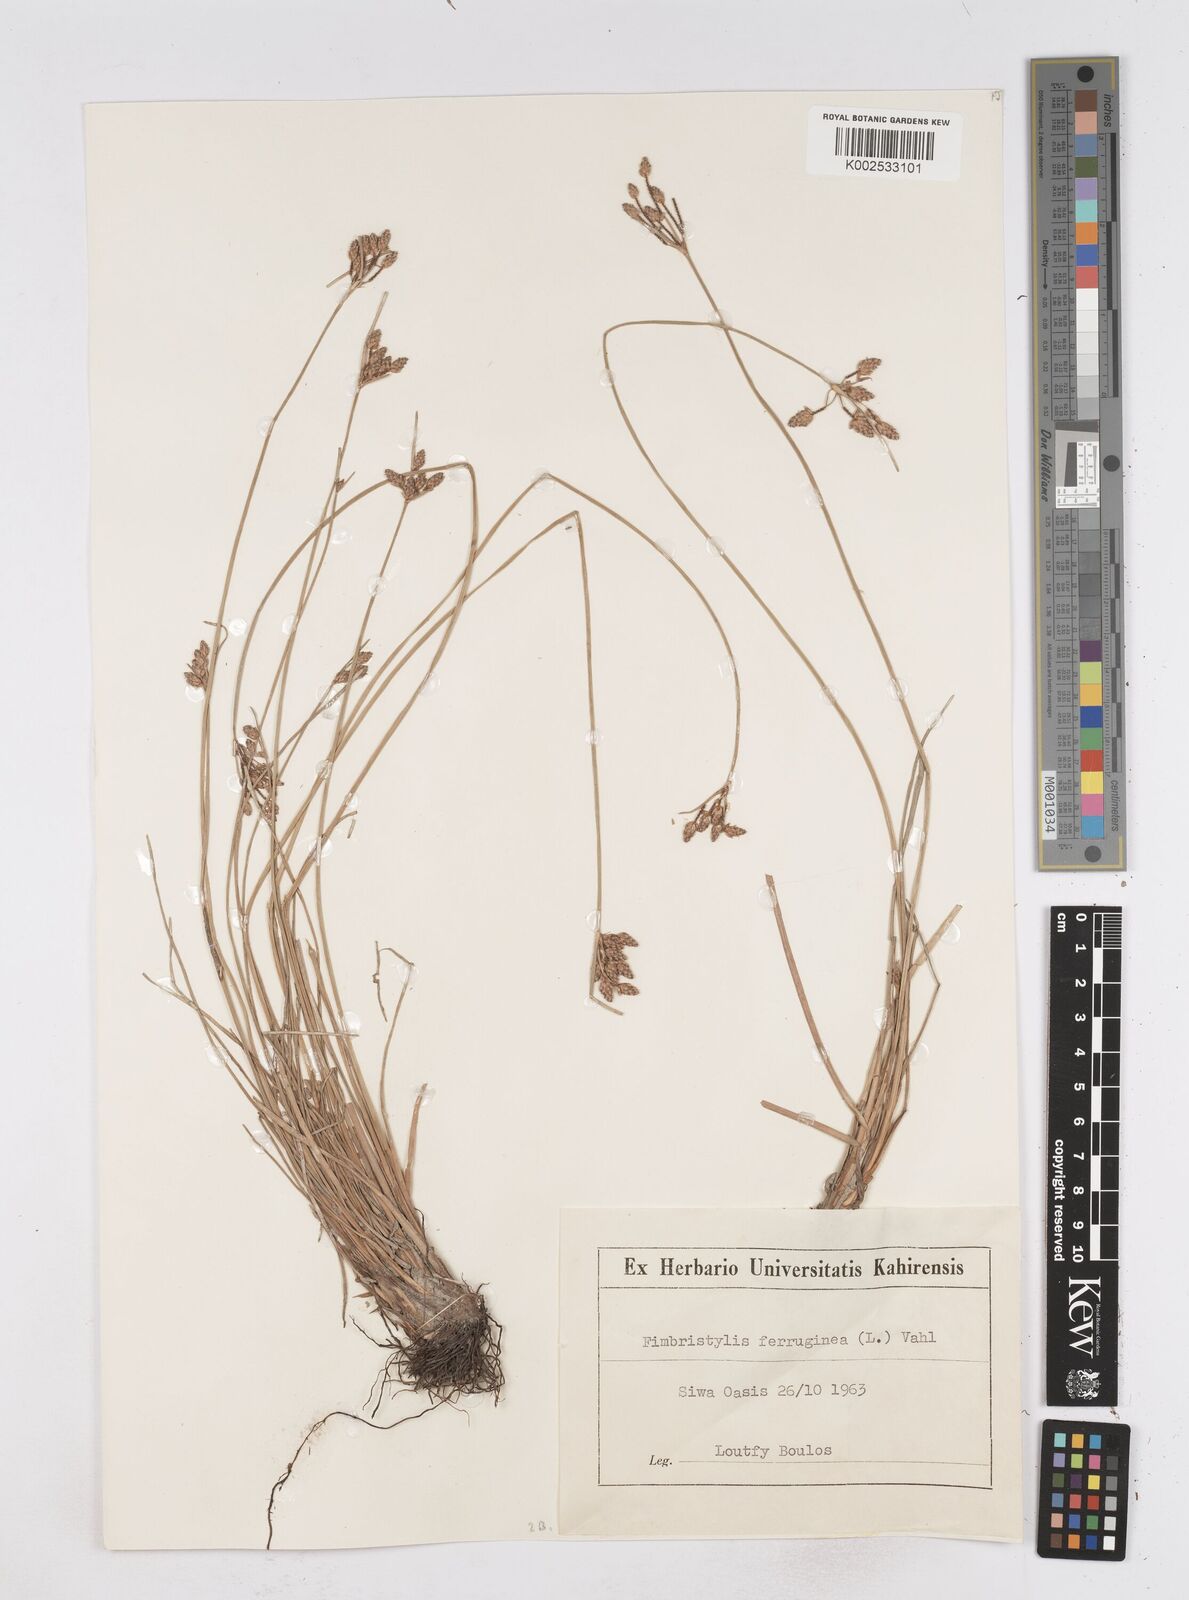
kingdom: Plantae
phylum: Tracheophyta
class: Liliopsida
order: Poales
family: Cyperaceae
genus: Fimbristylis
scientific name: Fimbristylis ferruginea
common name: West indian fimbry
